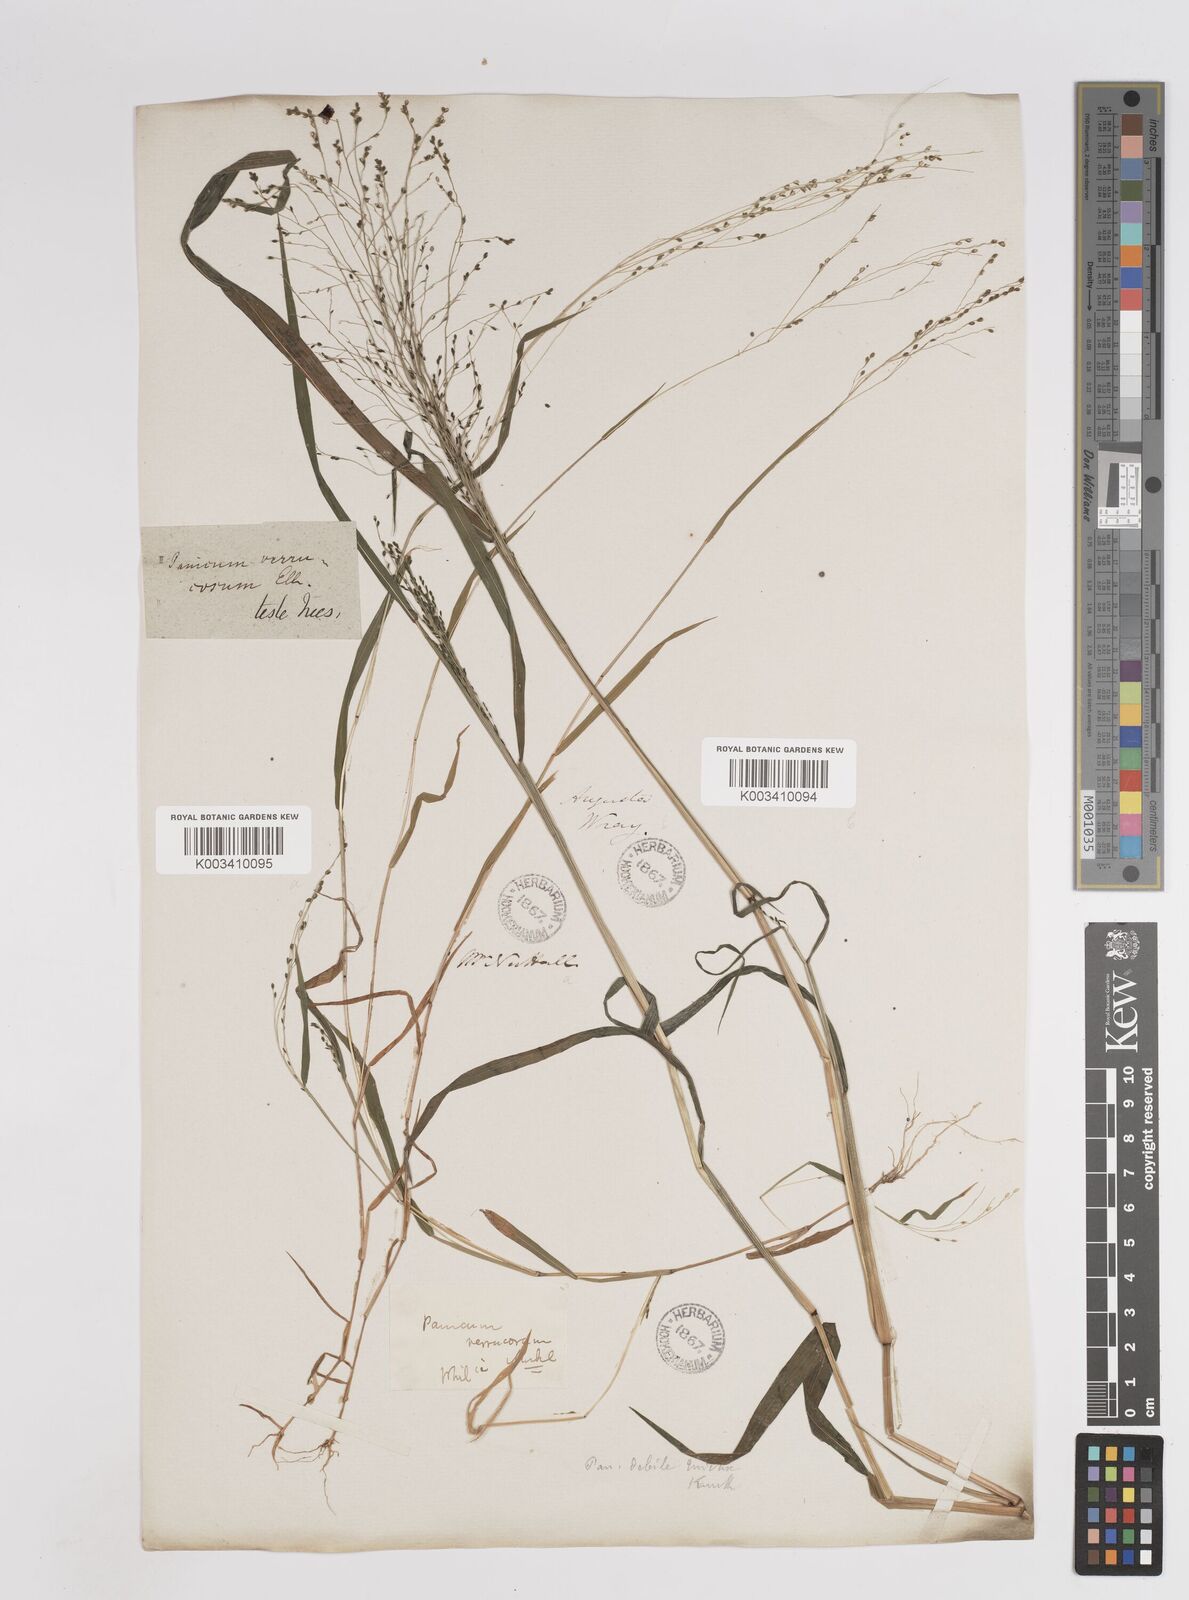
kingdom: Plantae
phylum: Tracheophyta
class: Liliopsida
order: Poales
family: Poaceae
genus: Kellochloa
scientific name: Kellochloa verrucosa
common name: Warty panic grass
